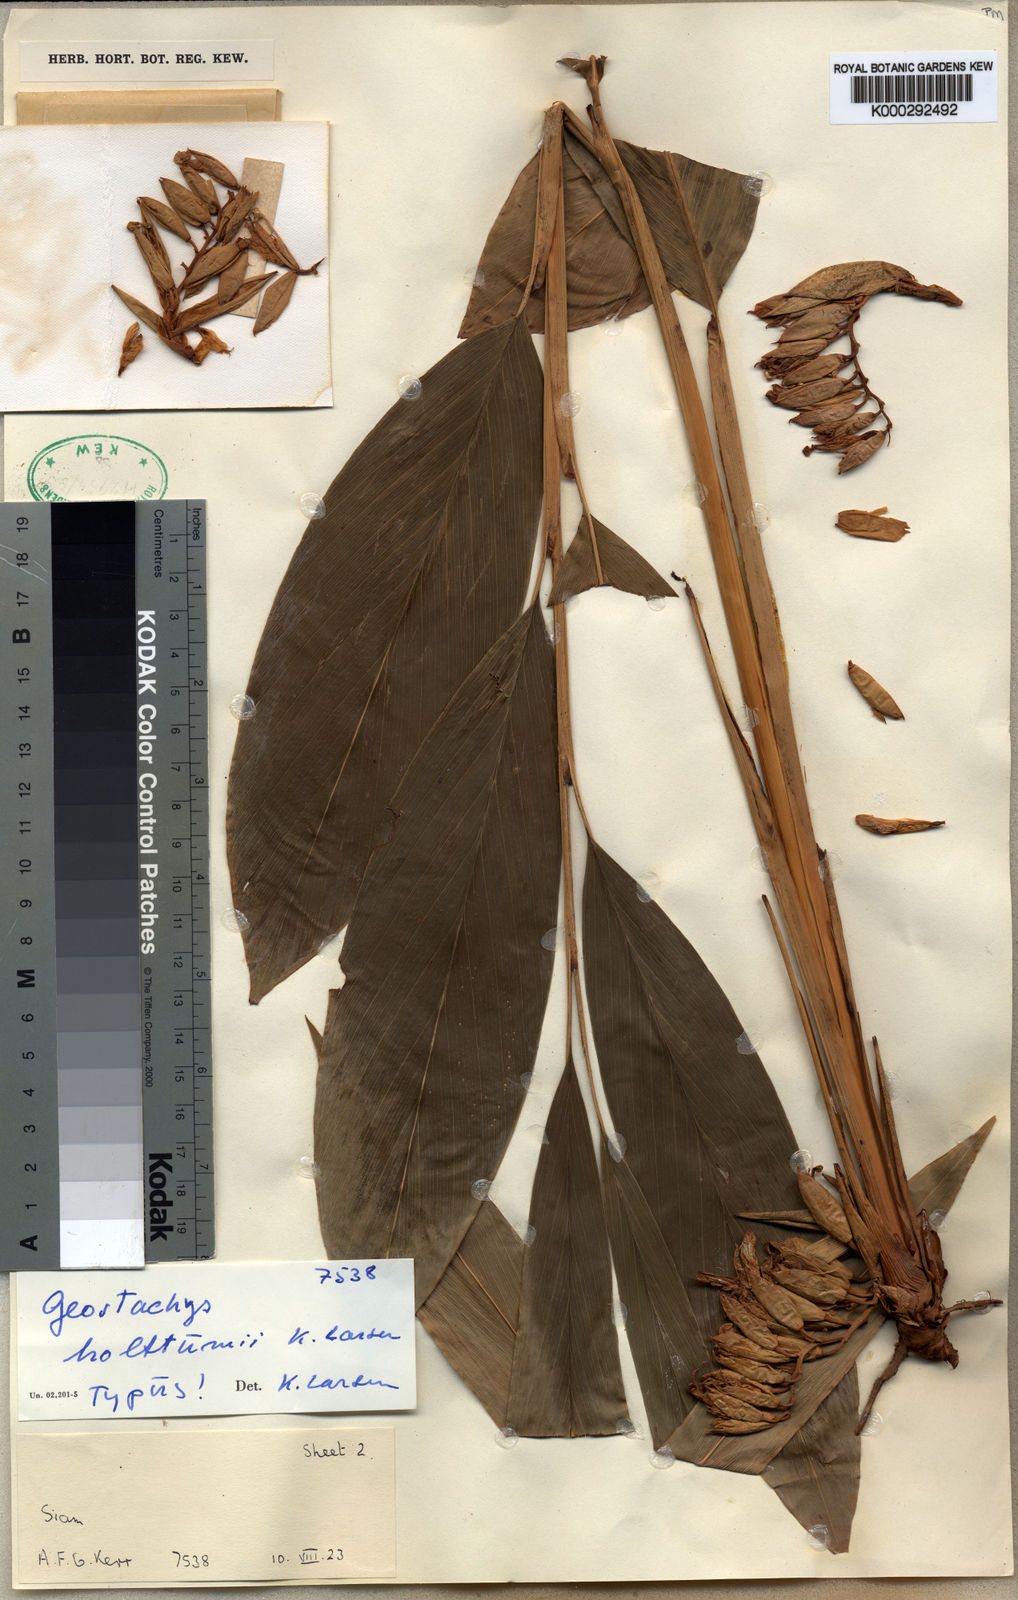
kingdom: Plantae
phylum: Tracheophyta
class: Liliopsida
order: Zingiberales
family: Zingiberaceae
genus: Geostachys
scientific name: Geostachys holttumii
